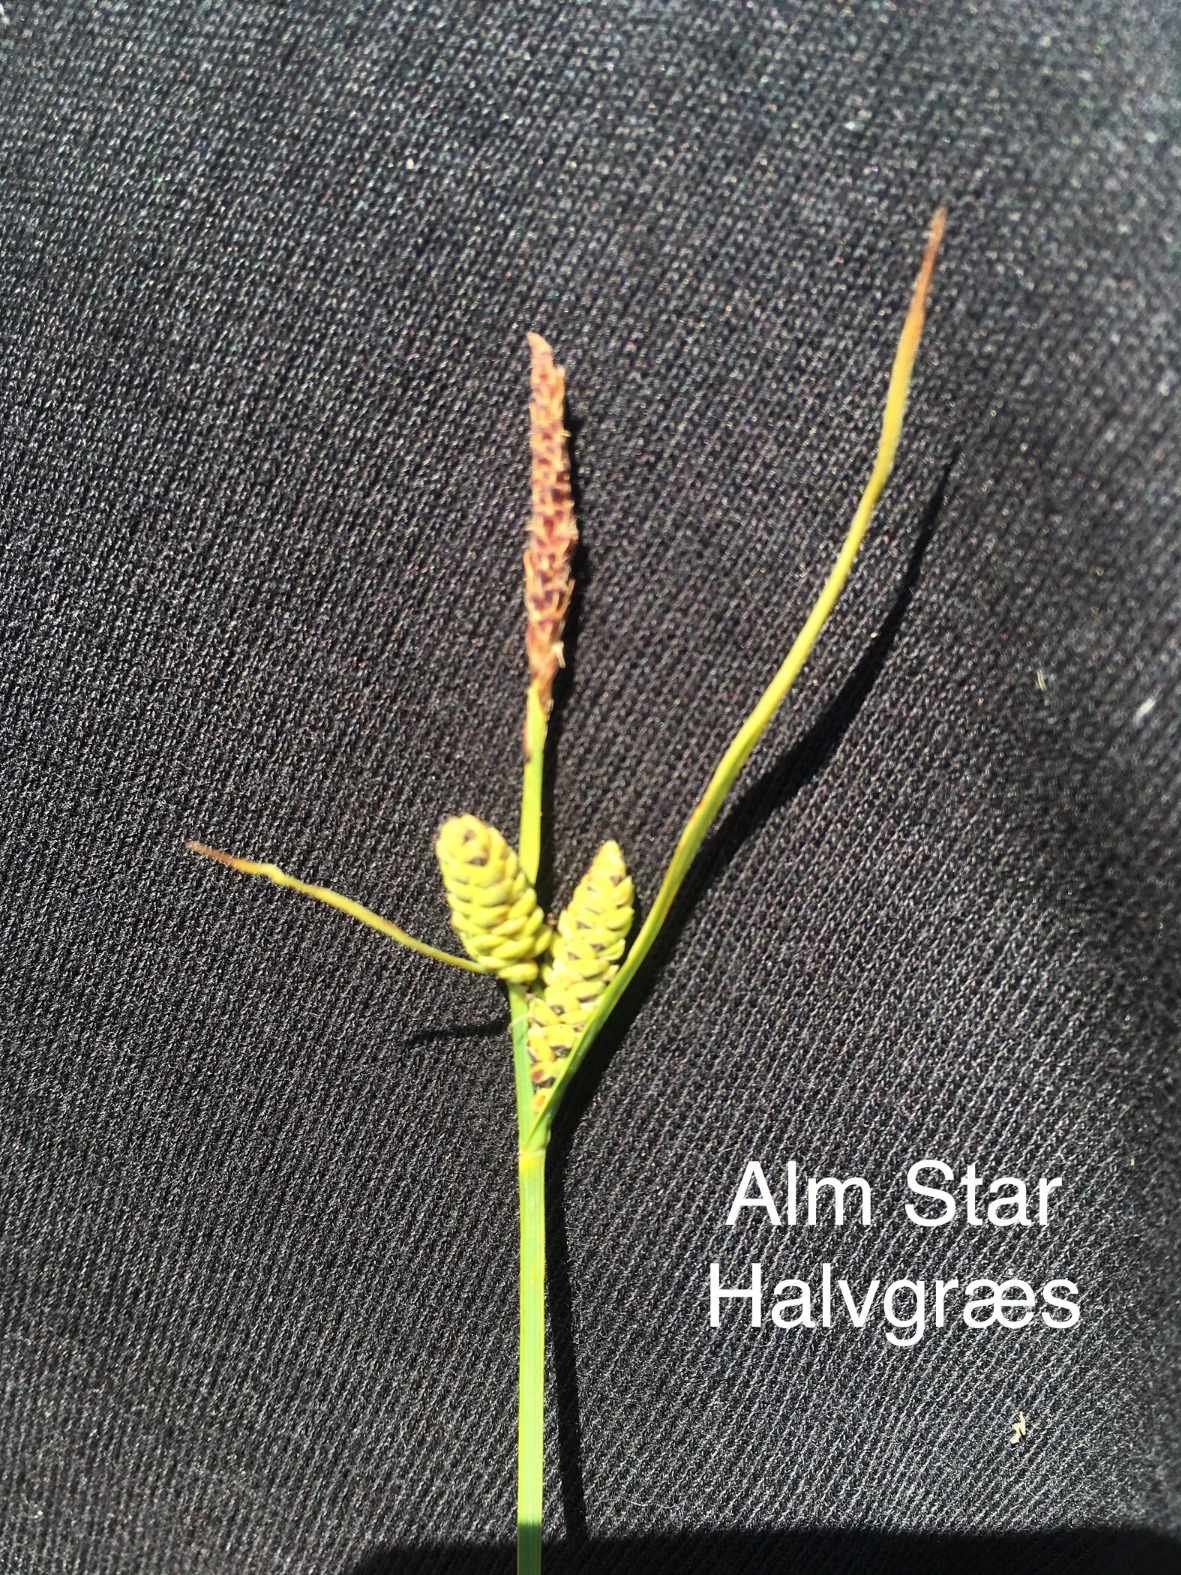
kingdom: Plantae
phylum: Tracheophyta
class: Liliopsida
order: Poales
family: Cyperaceae
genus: Carex
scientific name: Carex nigra
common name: Almindelig star
